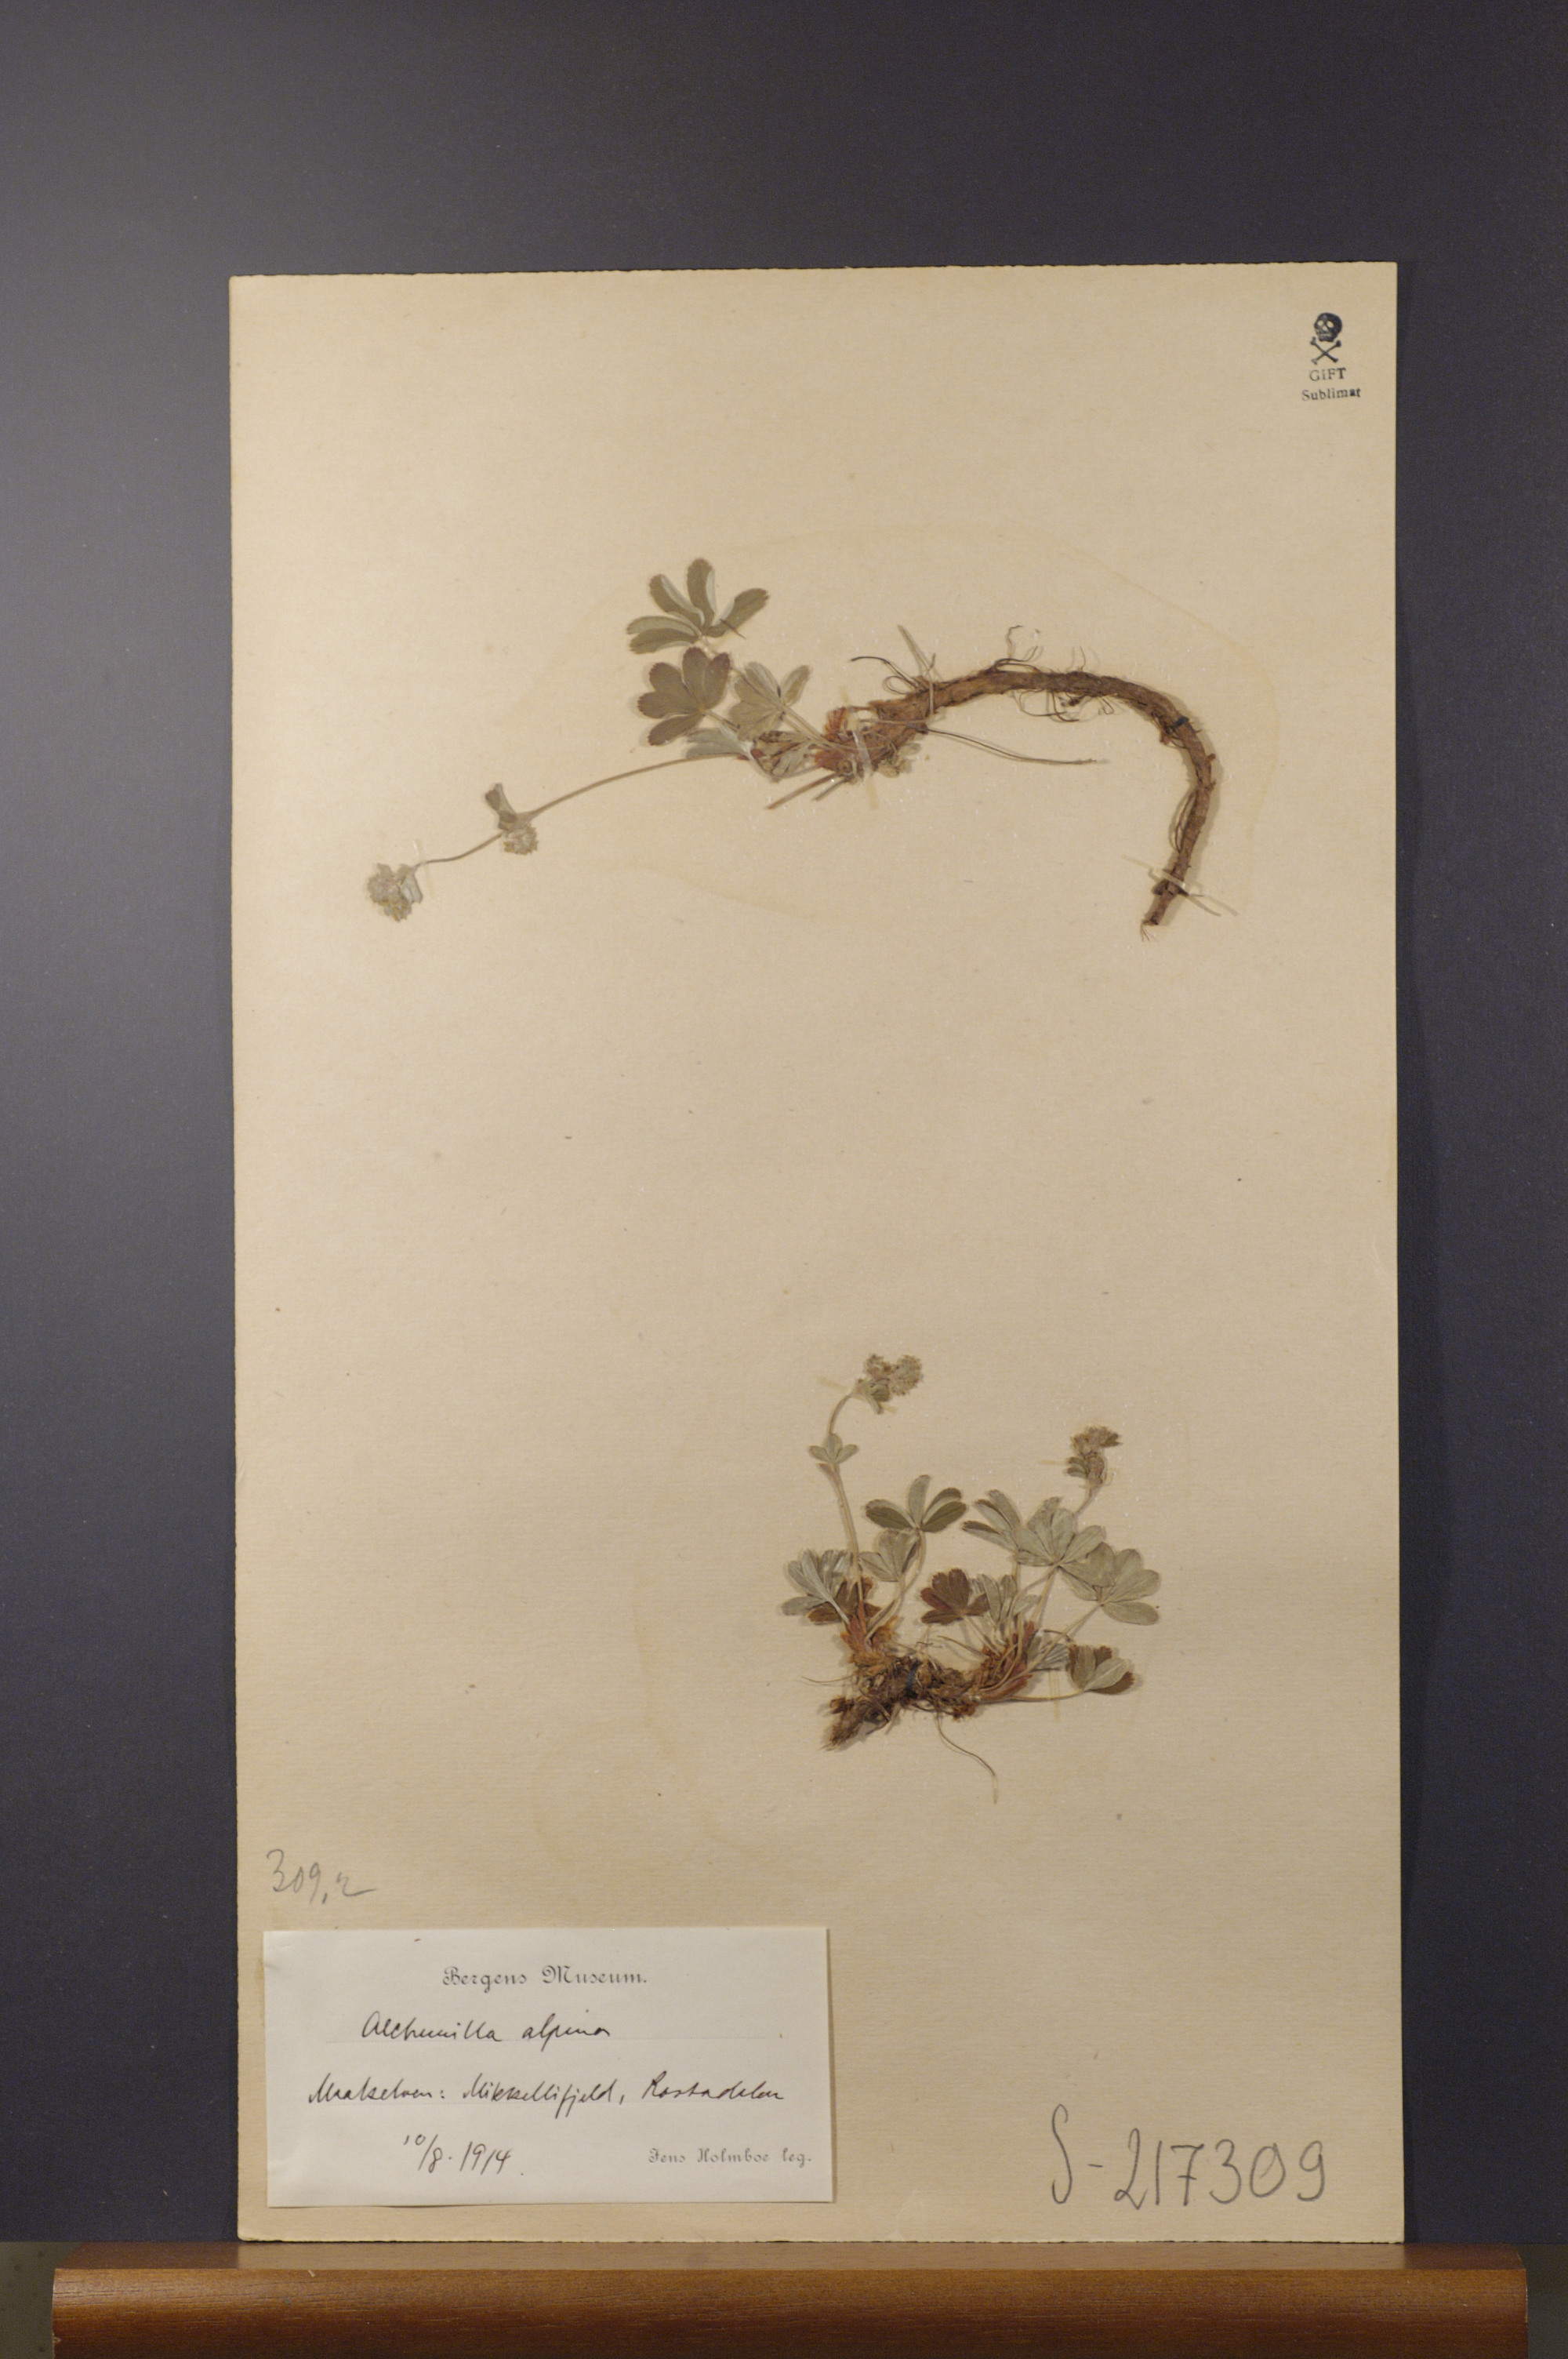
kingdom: Plantae
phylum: Tracheophyta
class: Magnoliopsida
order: Rosales
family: Rosaceae
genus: Alchemilla
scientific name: Alchemilla alpina
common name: Alpine lady's-mantle
